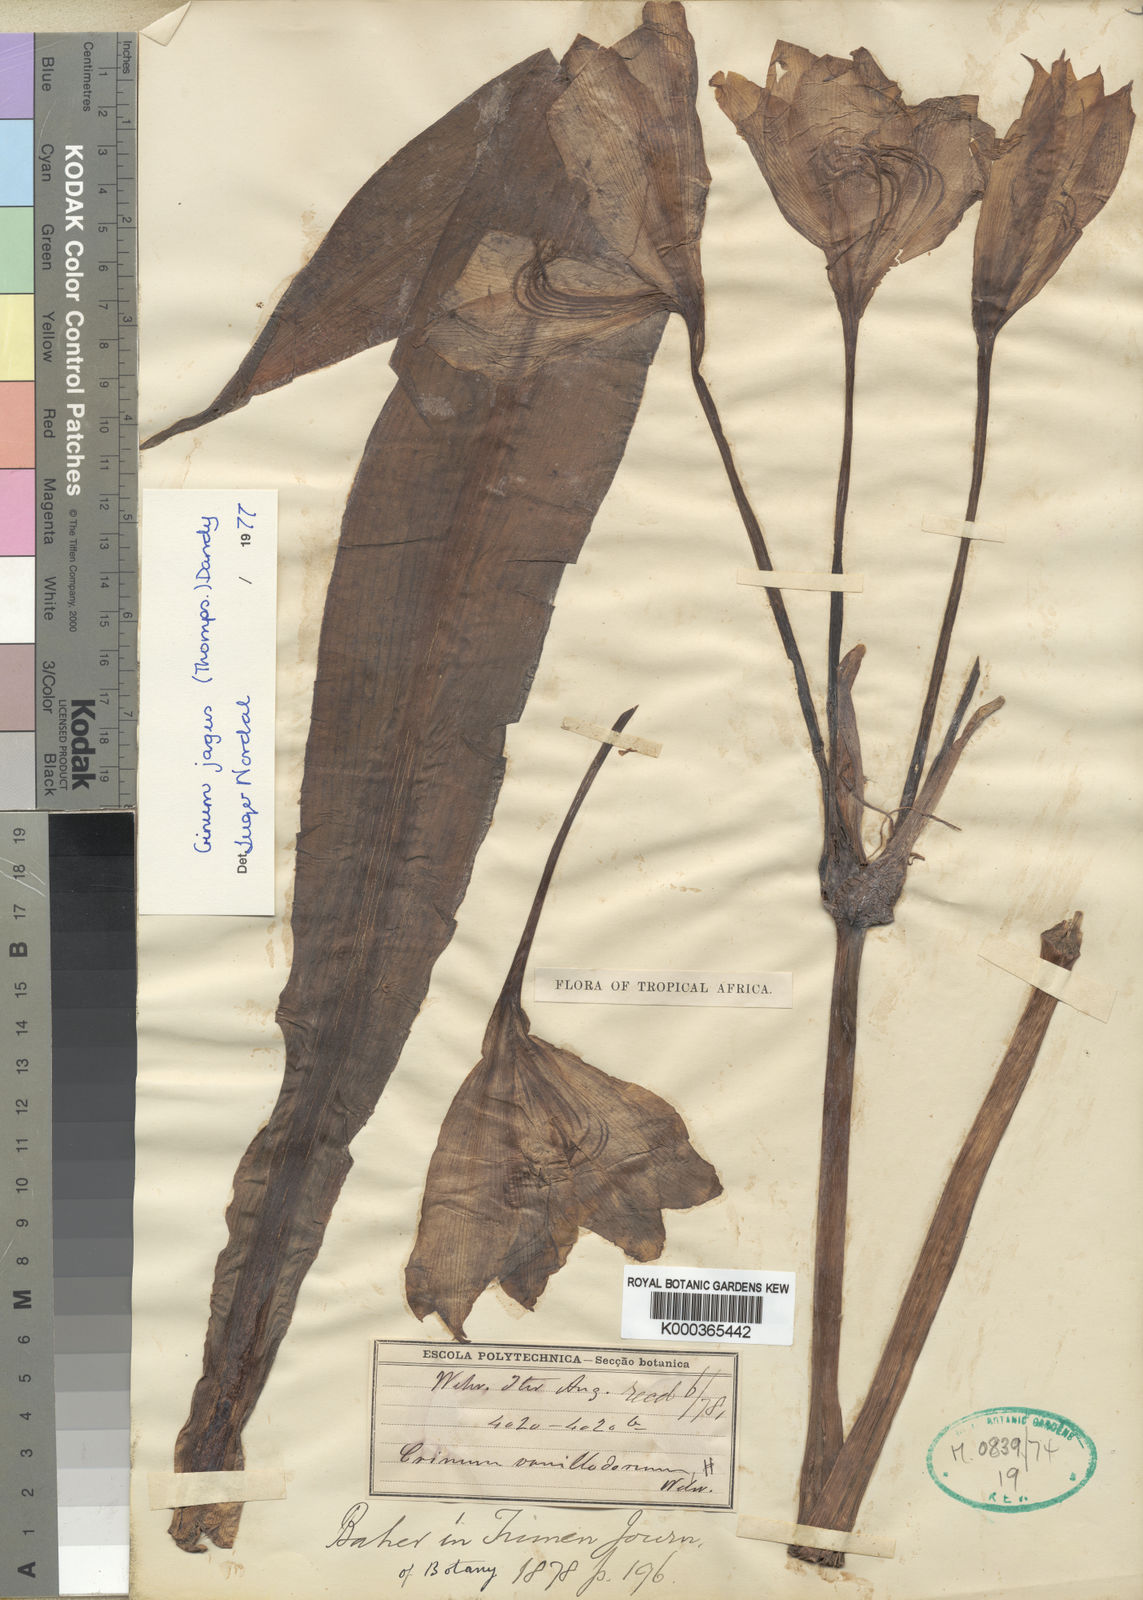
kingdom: Plantae
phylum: Tracheophyta
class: Liliopsida
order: Asparagales
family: Amaryllidaceae
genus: Crinum
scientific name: Crinum jagus
